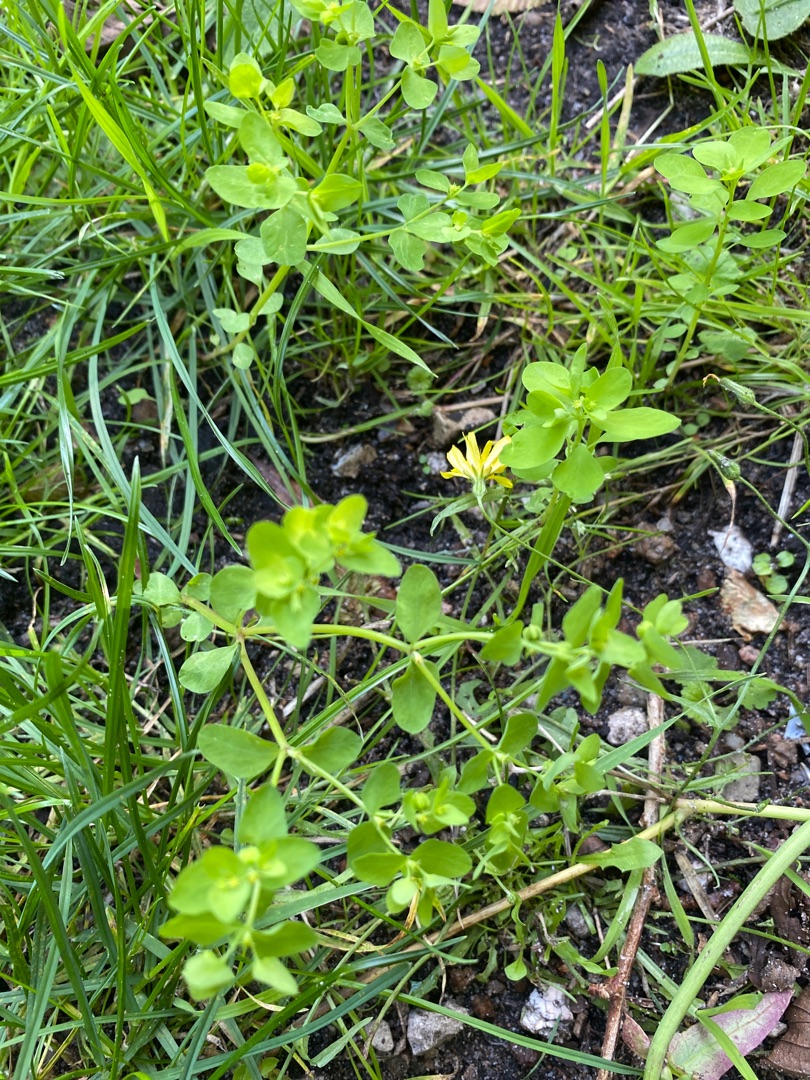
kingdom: Plantae
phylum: Tracheophyta
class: Magnoliopsida
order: Malpighiales
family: Euphorbiaceae
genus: Euphorbia
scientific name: Euphorbia peplus
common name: Gaffel-vortemælk
